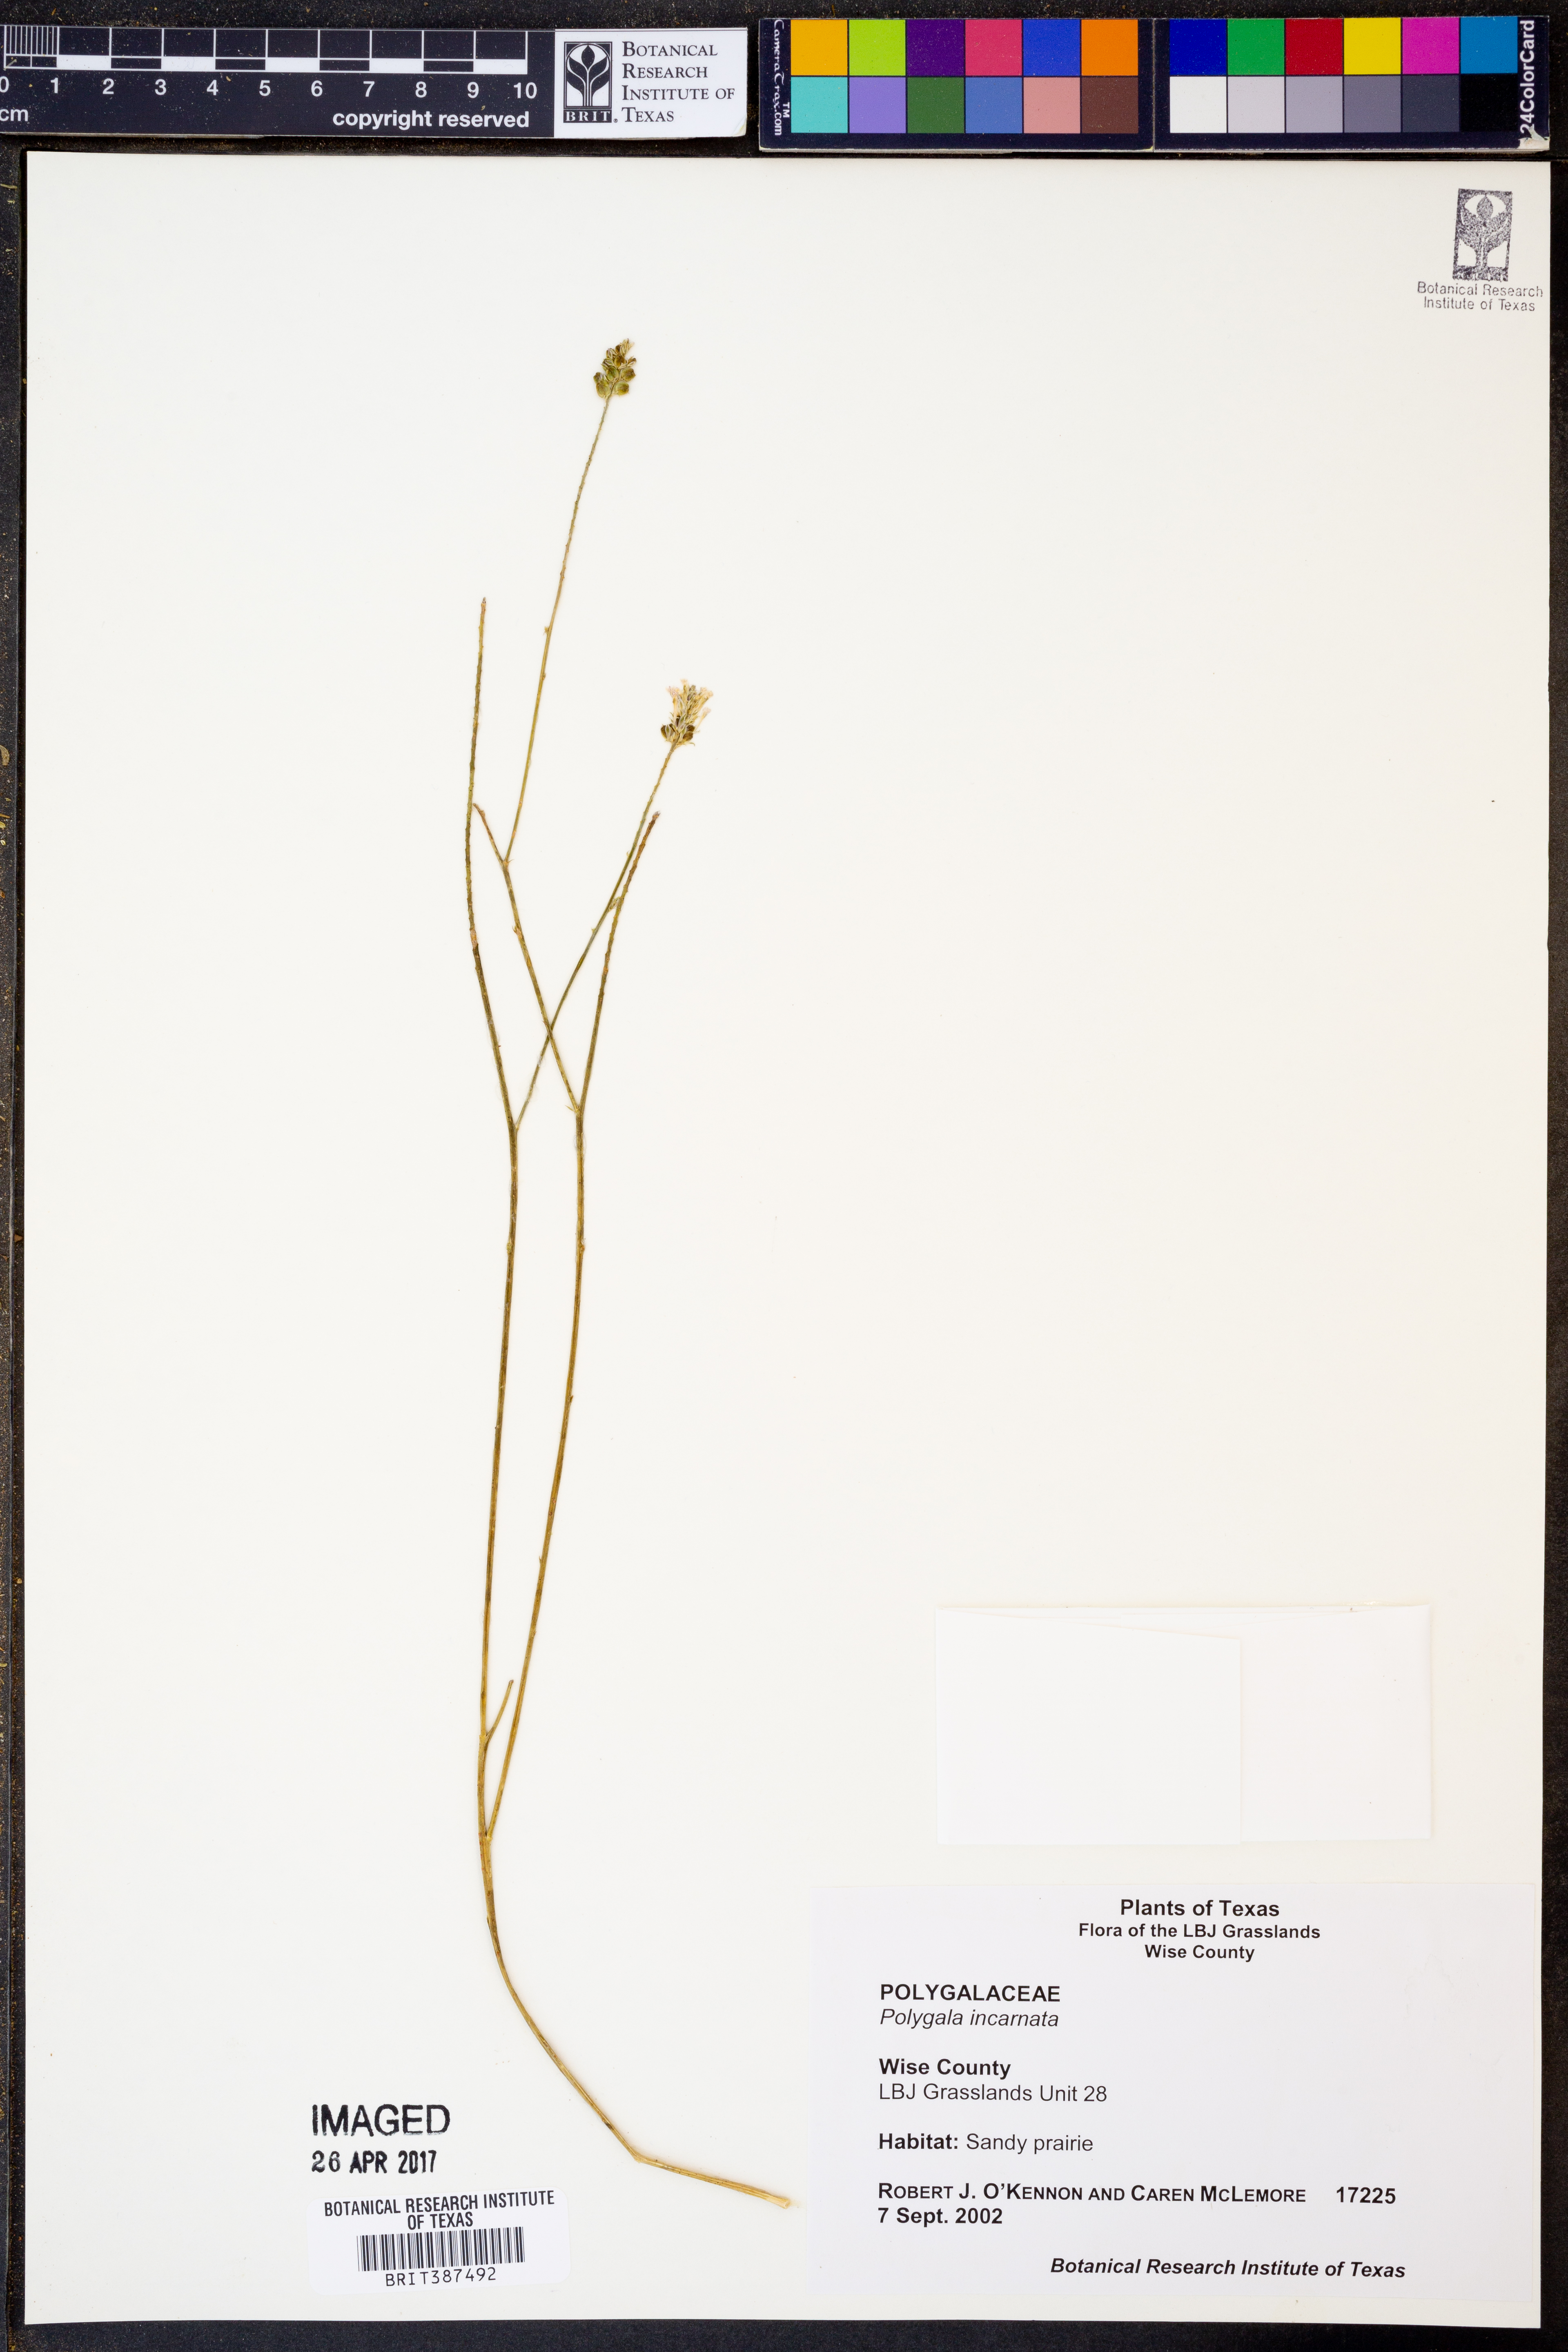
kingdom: Plantae
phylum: Tracheophyta
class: Magnoliopsida
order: Fabales
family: Polygalaceae
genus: Polygala
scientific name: Polygala incarnata
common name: Pink milkwort
